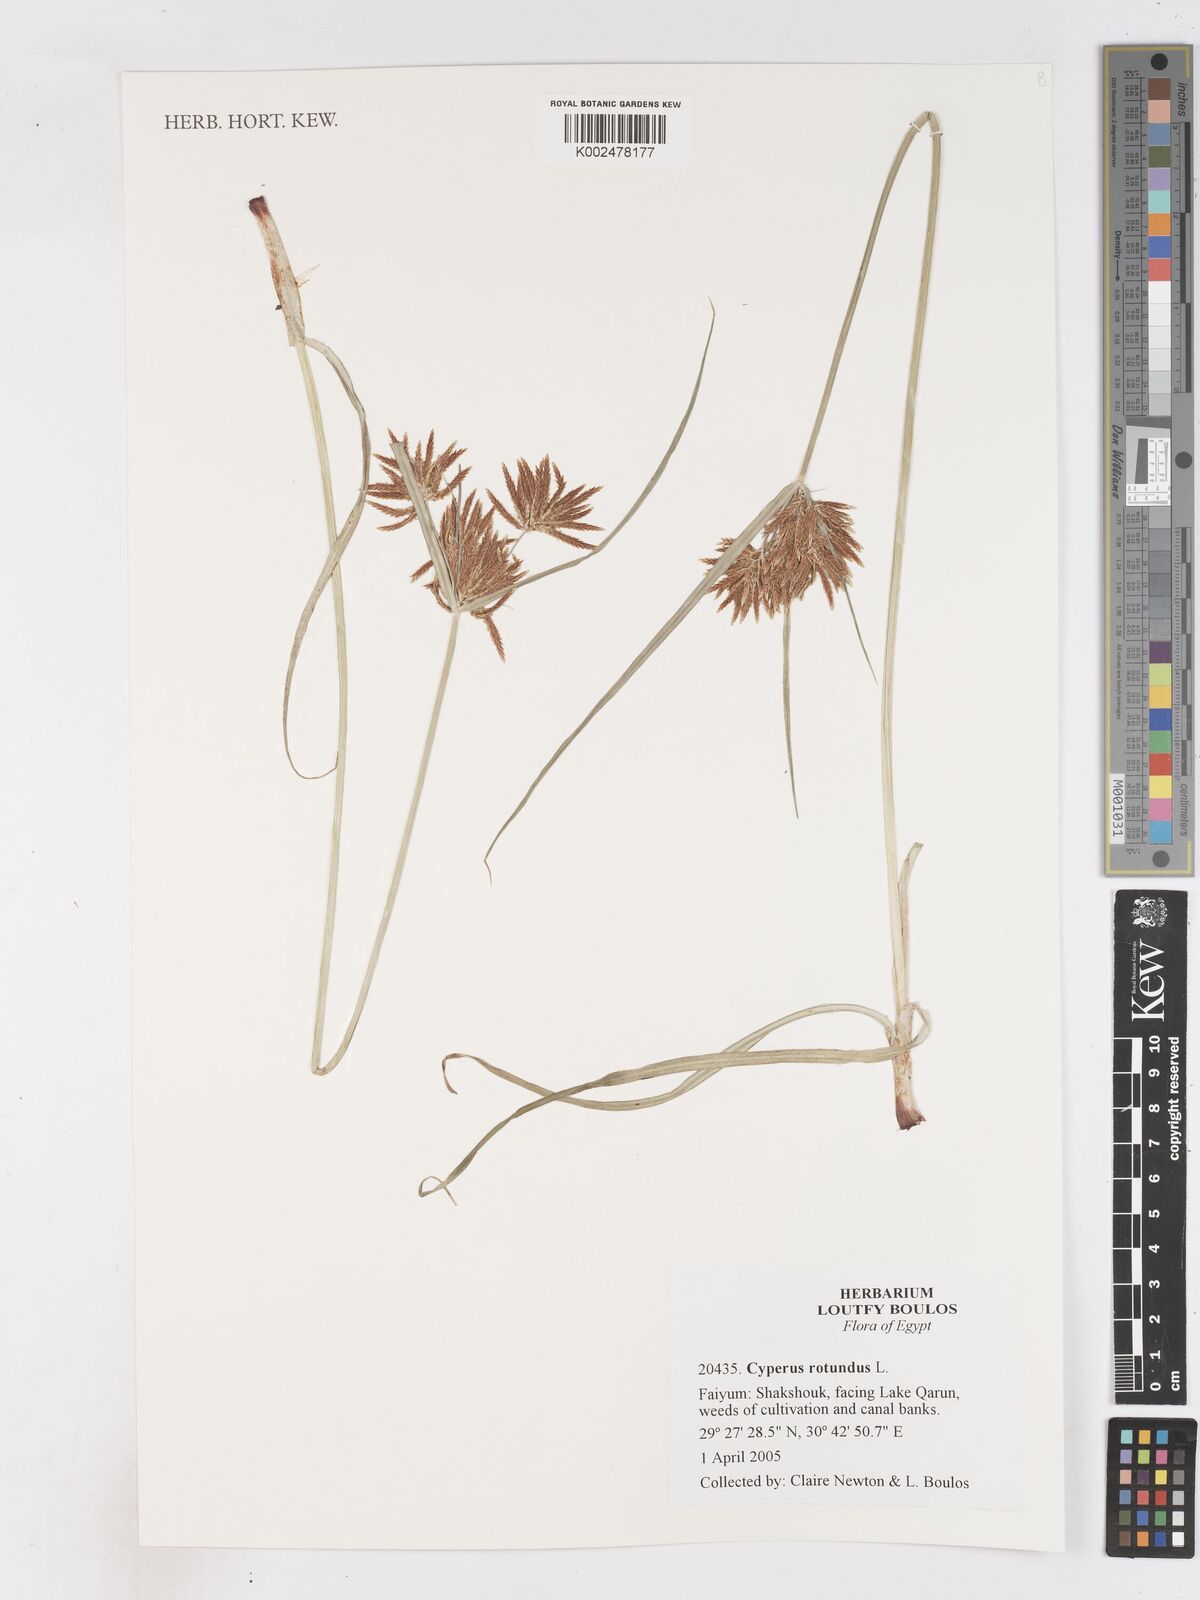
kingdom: Plantae
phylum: Tracheophyta
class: Liliopsida
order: Poales
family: Cyperaceae
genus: Cyperus
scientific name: Cyperus rotundus
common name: Nutgrass
